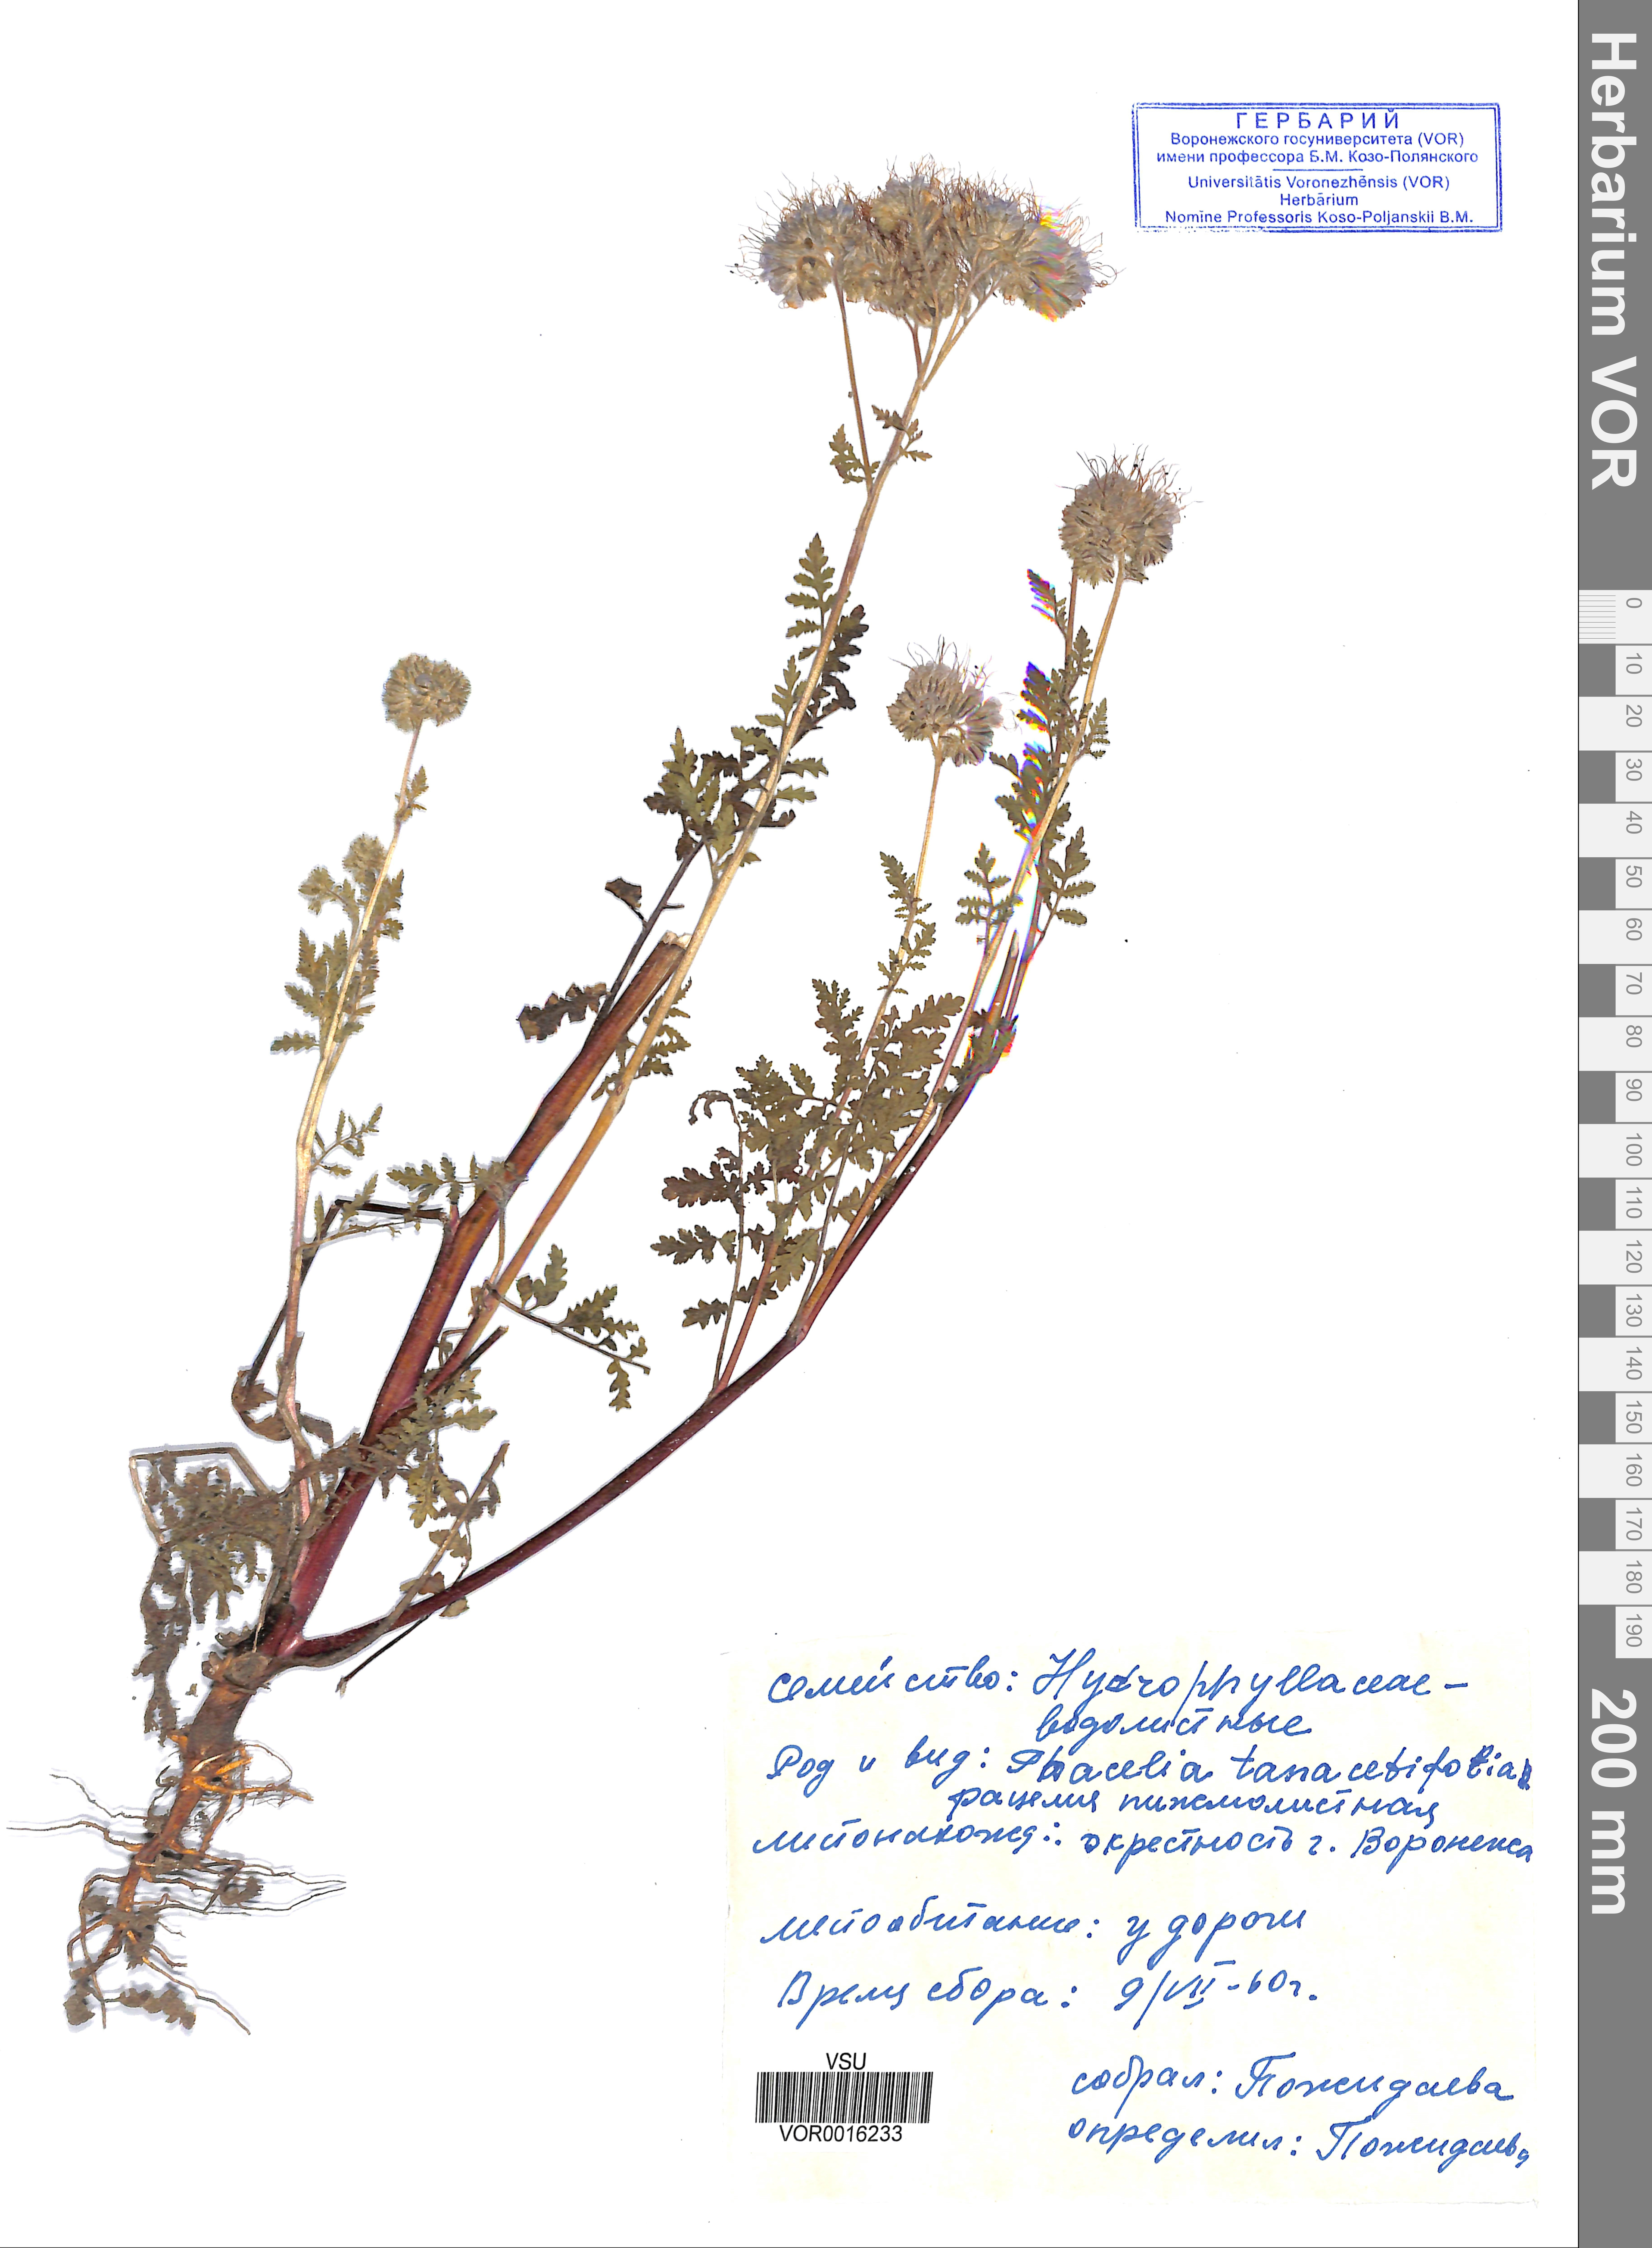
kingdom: Plantae
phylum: Tracheophyta
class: Magnoliopsida
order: Boraginales
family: Hydrophyllaceae
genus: Phacelia
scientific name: Phacelia tanacetifolia
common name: Phacelia
